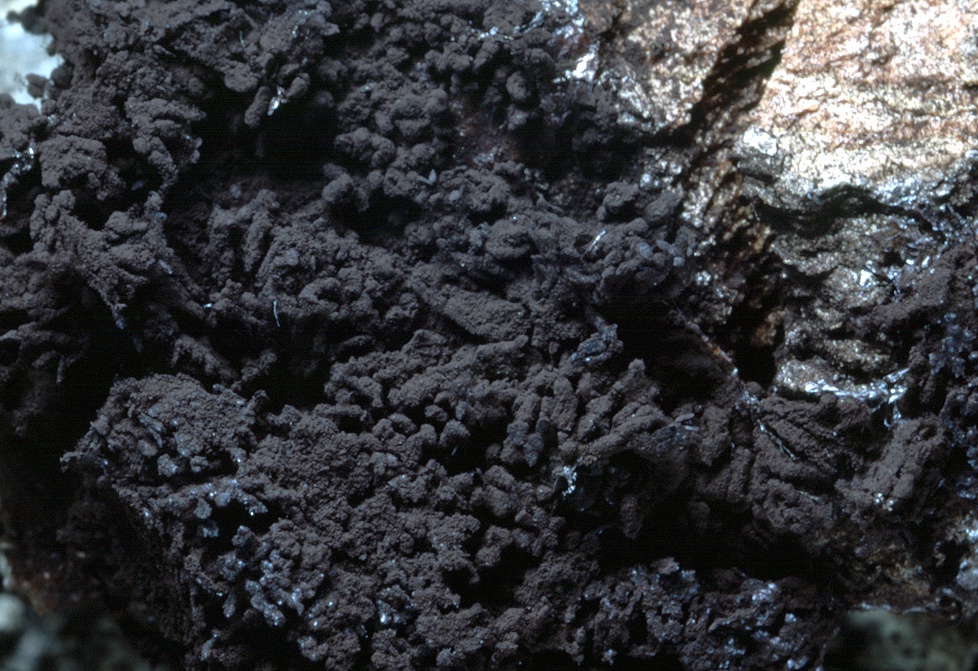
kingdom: Protozoa
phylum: Mycetozoa
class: Myxomycetes
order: Stemonitidales
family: Stemonitidaceae
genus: Symphytocarpus
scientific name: Symphytocarpus amaurochaetoides
